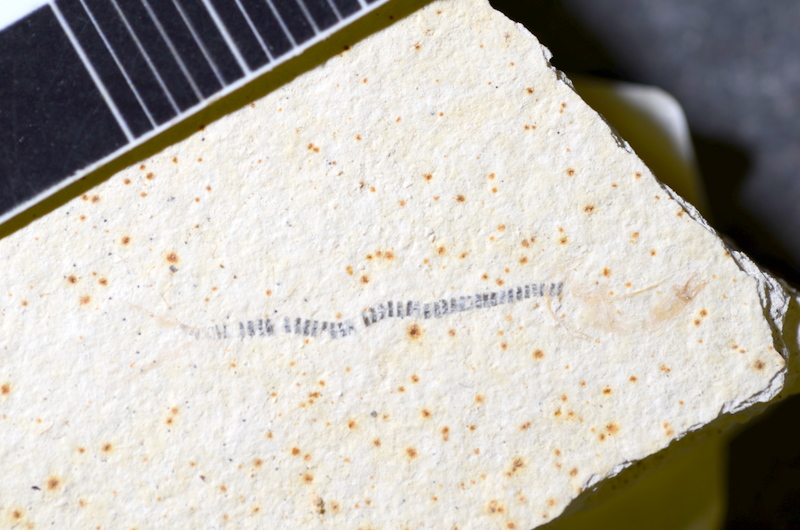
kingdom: Animalia
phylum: Chordata
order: Salmoniformes
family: Orthogonikleithridae
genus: Orthogonikleithrus
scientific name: Orthogonikleithrus hoelli
